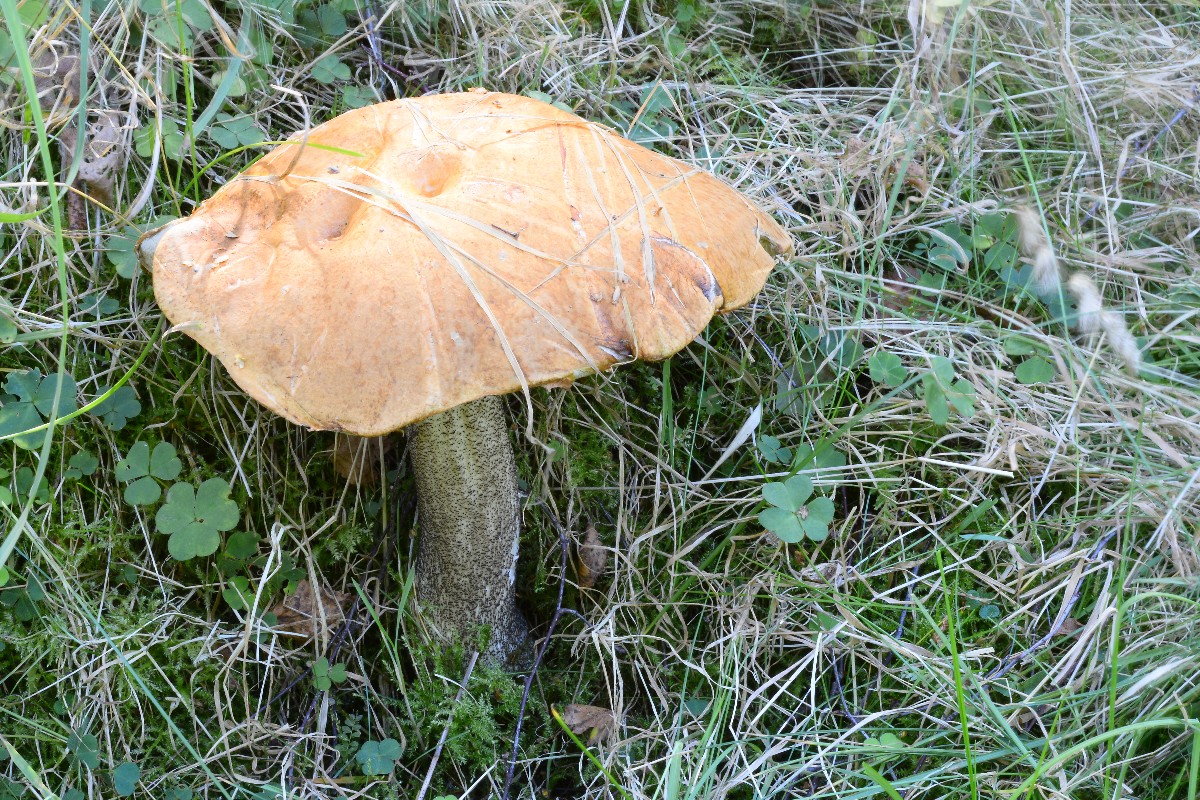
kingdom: Fungi
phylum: Basidiomycota
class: Agaricomycetes
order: Boletales
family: Boletaceae
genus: Leccinum
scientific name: Leccinum versipelle
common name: orange skælrørhat
